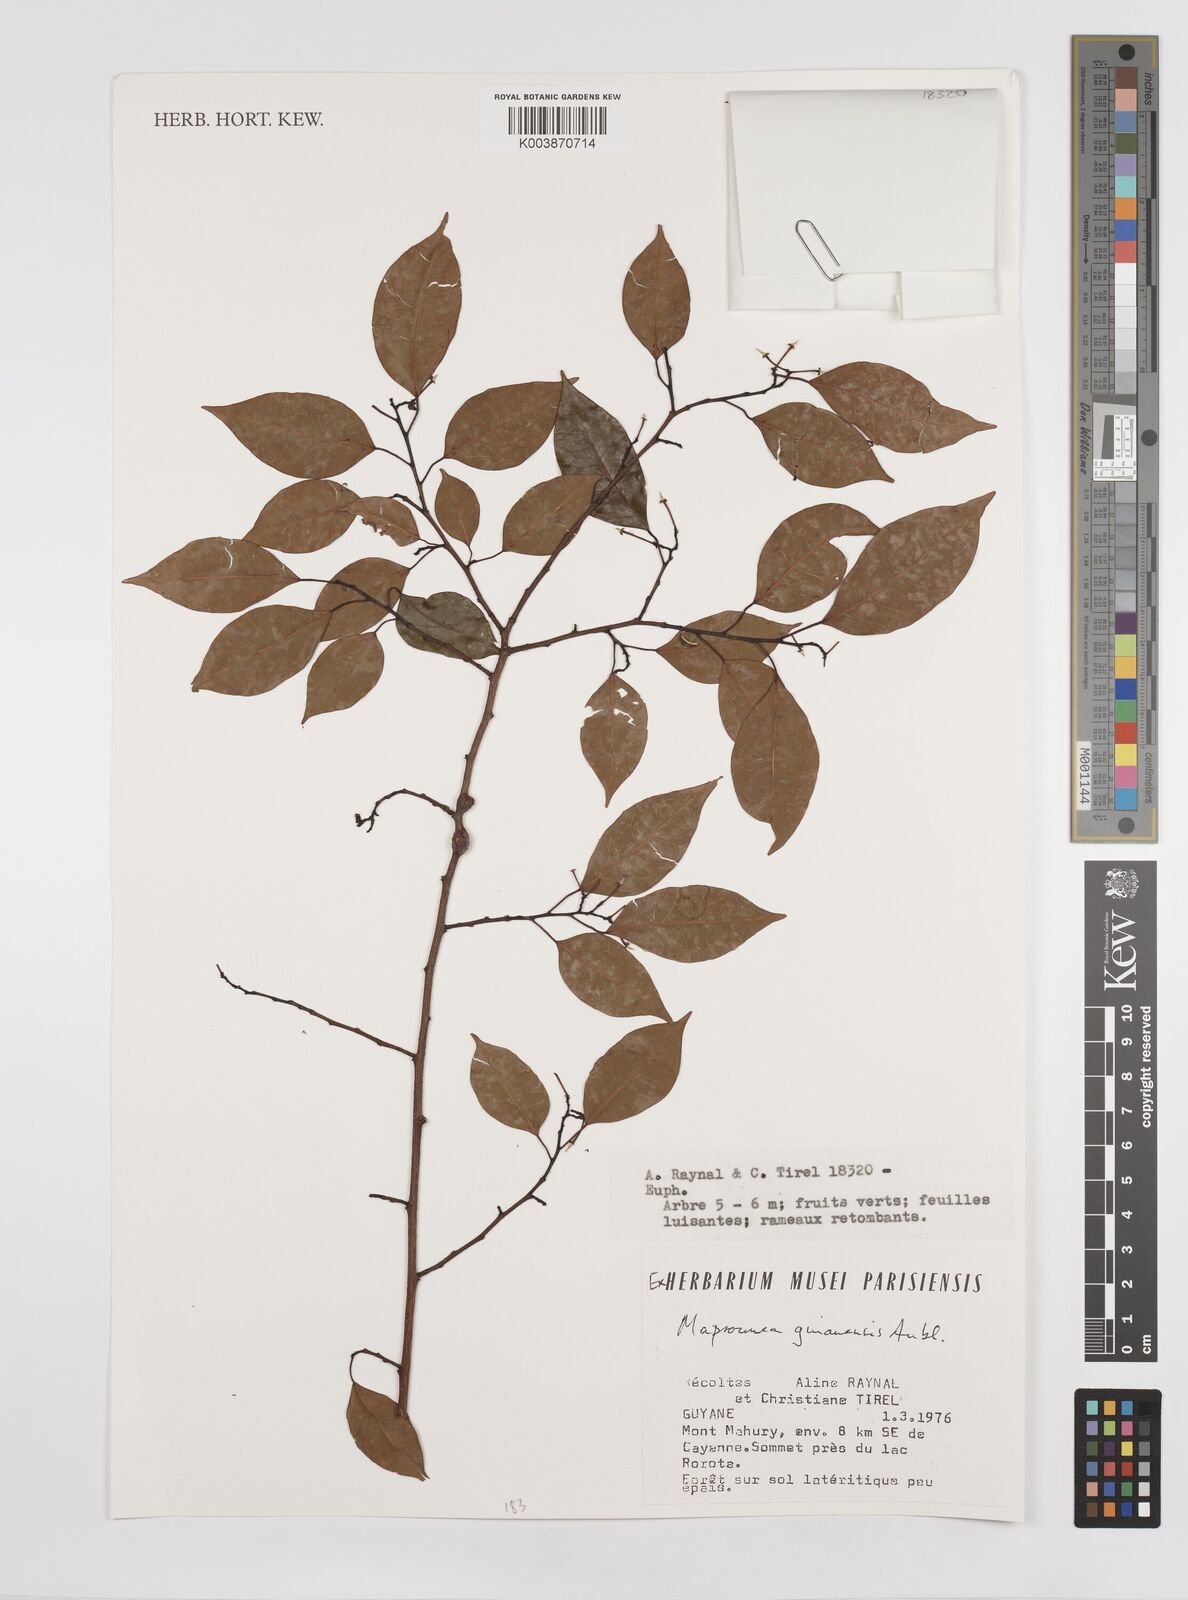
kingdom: Plantae
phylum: Tracheophyta
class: Magnoliopsida
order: Malpighiales
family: Euphorbiaceae
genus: Maprounea
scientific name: Maprounea guianensis
